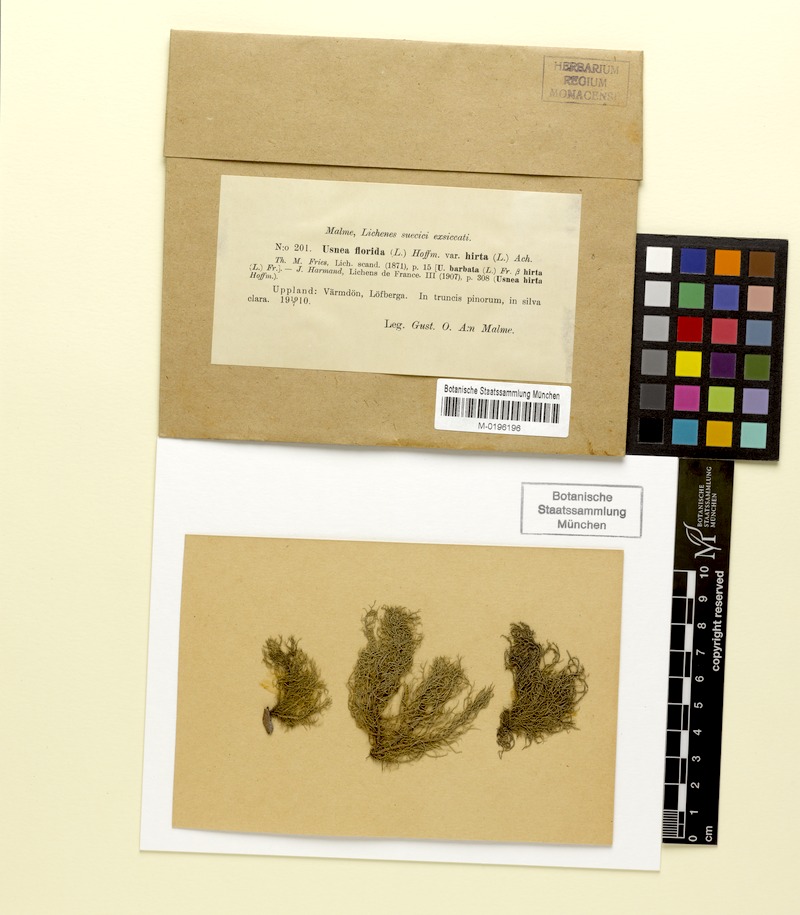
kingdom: Fungi
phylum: Ascomycota
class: Lecanoromycetes
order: Lecanorales
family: Parmeliaceae
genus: Usnea
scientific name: Usnea hirta
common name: Bristly beard lichen
